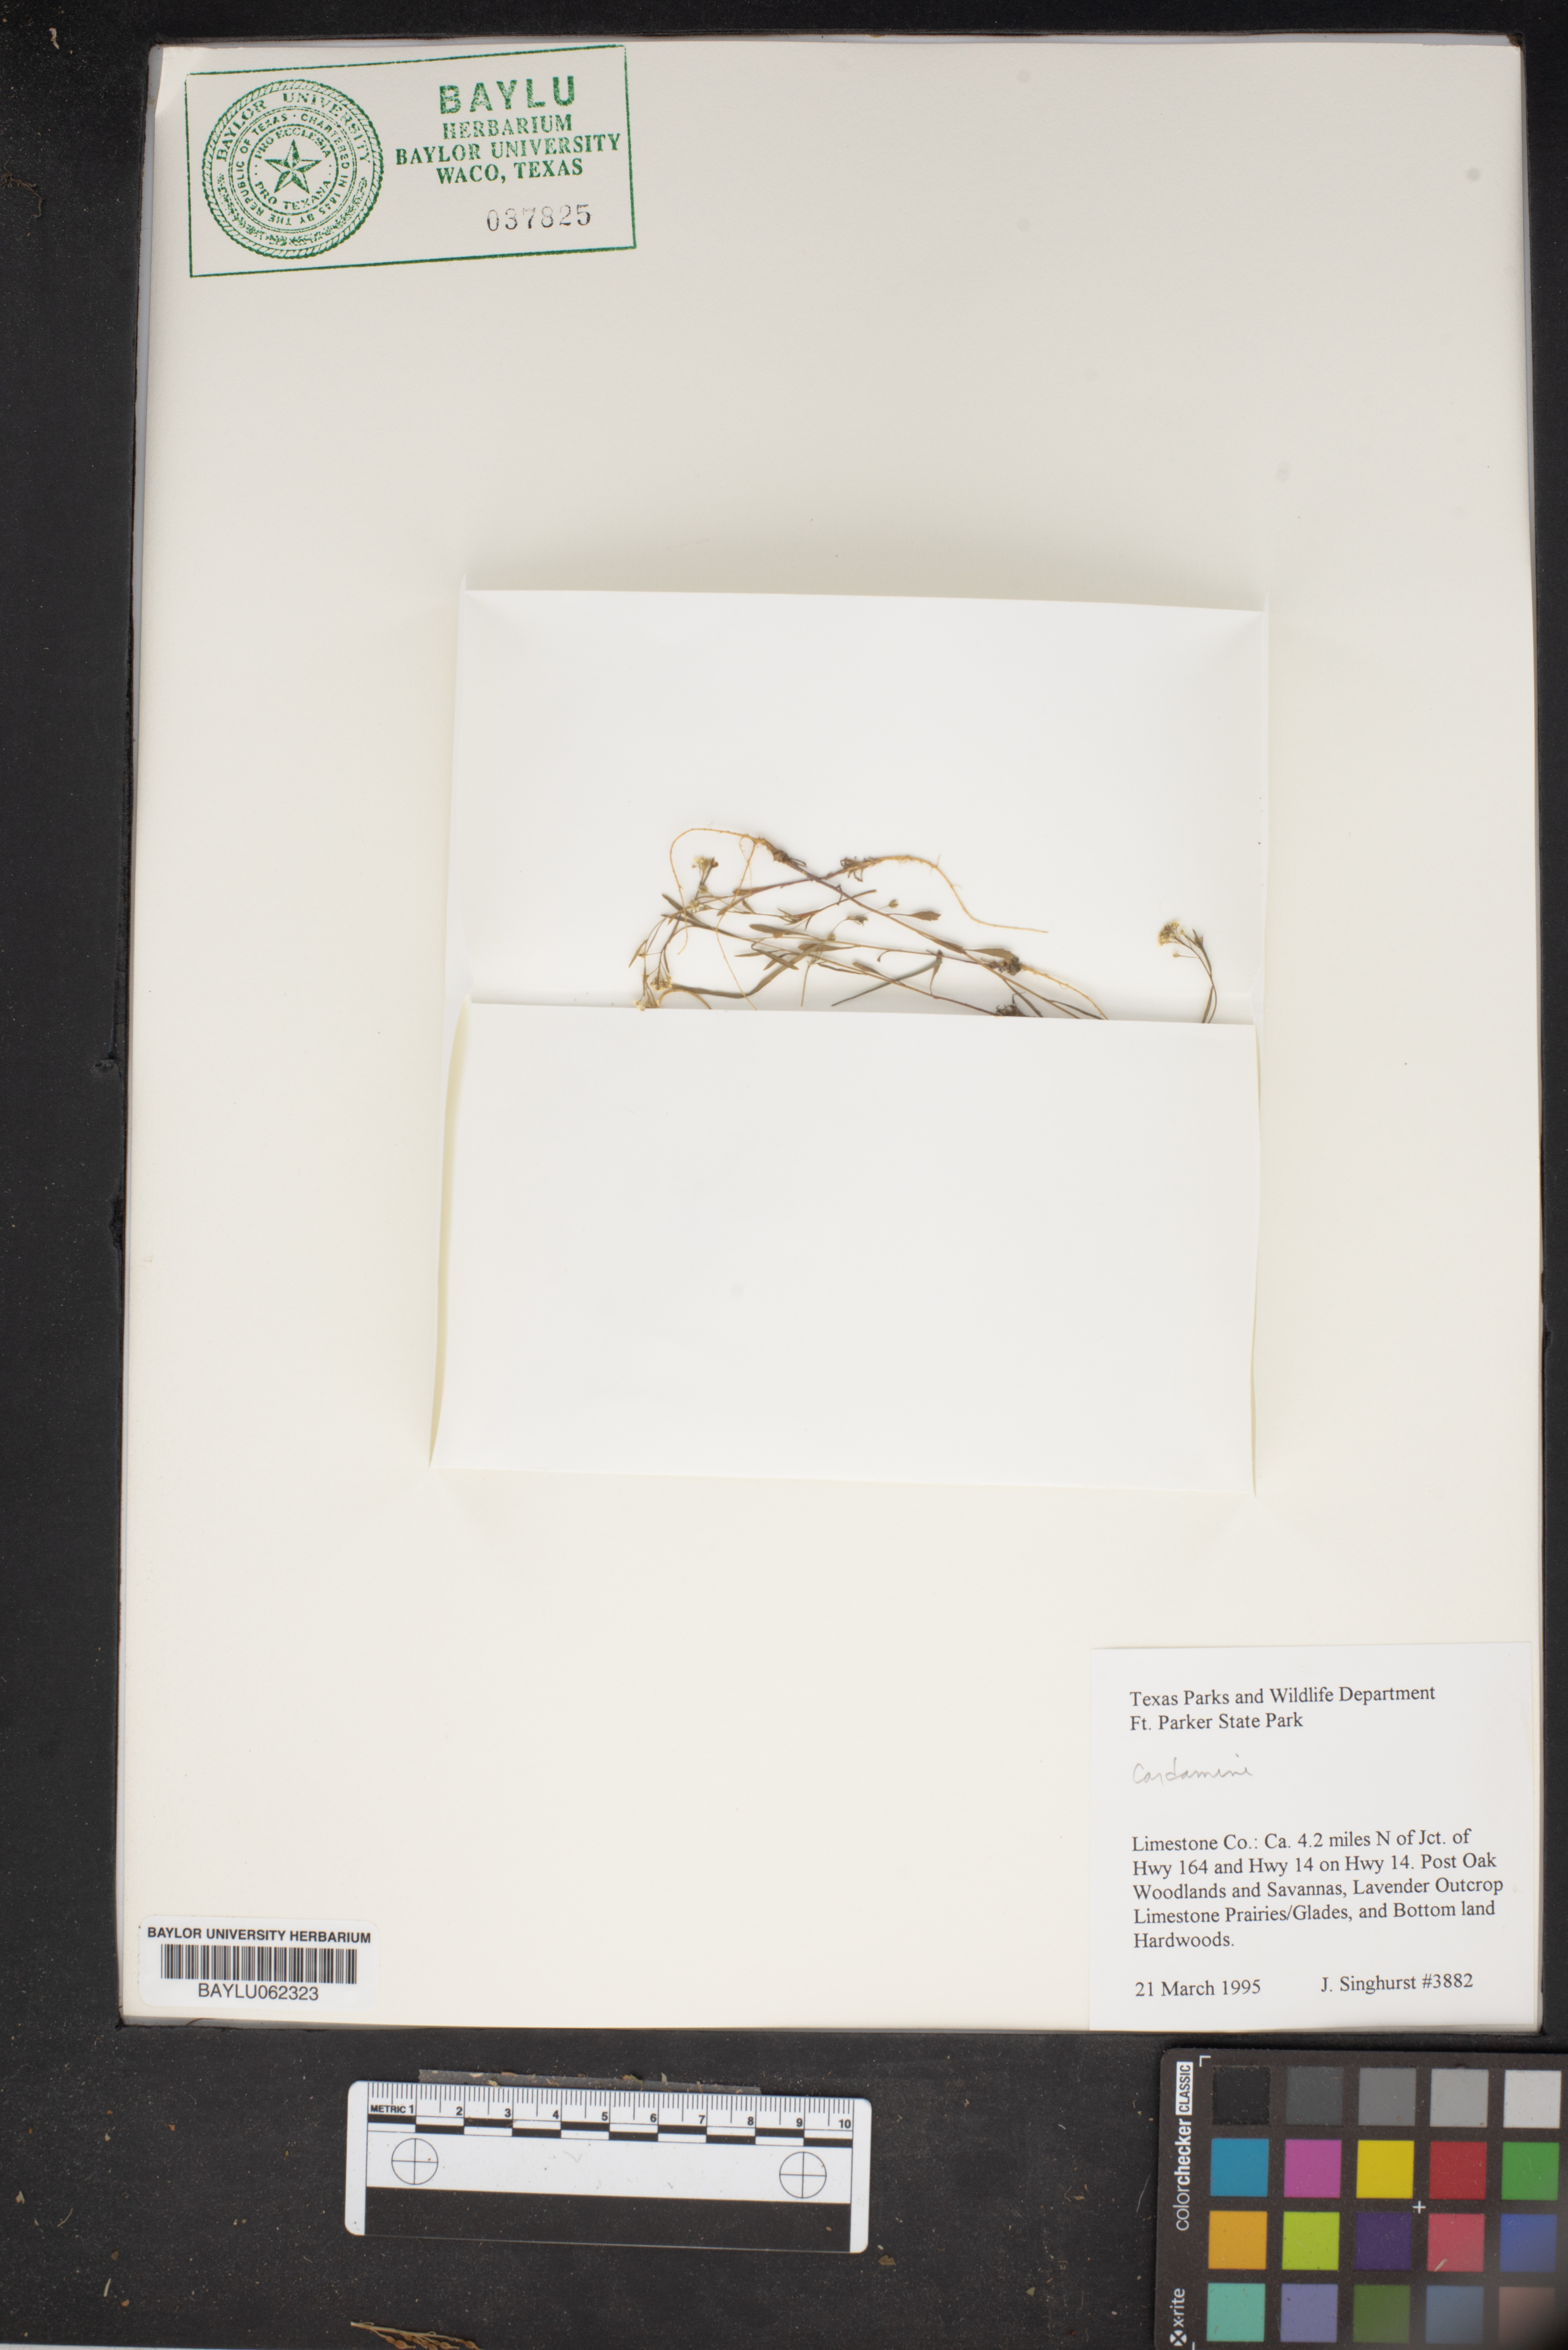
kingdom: Plantae
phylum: Tracheophyta
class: Magnoliopsida
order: Brassicales
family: Brassicaceae
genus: Cardamine
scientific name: Cardamine
